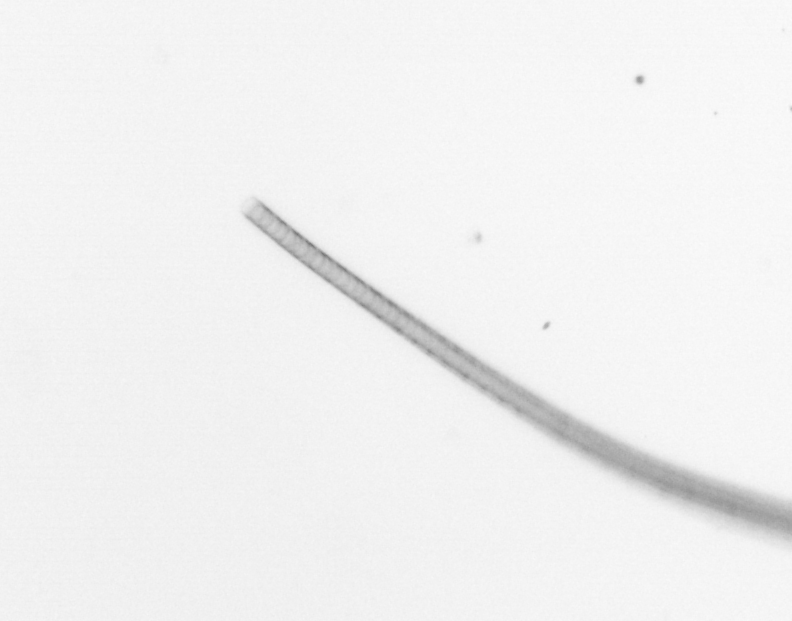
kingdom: Chromista
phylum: Ochrophyta
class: Bacillariophyceae
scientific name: Bacillariophyceae
